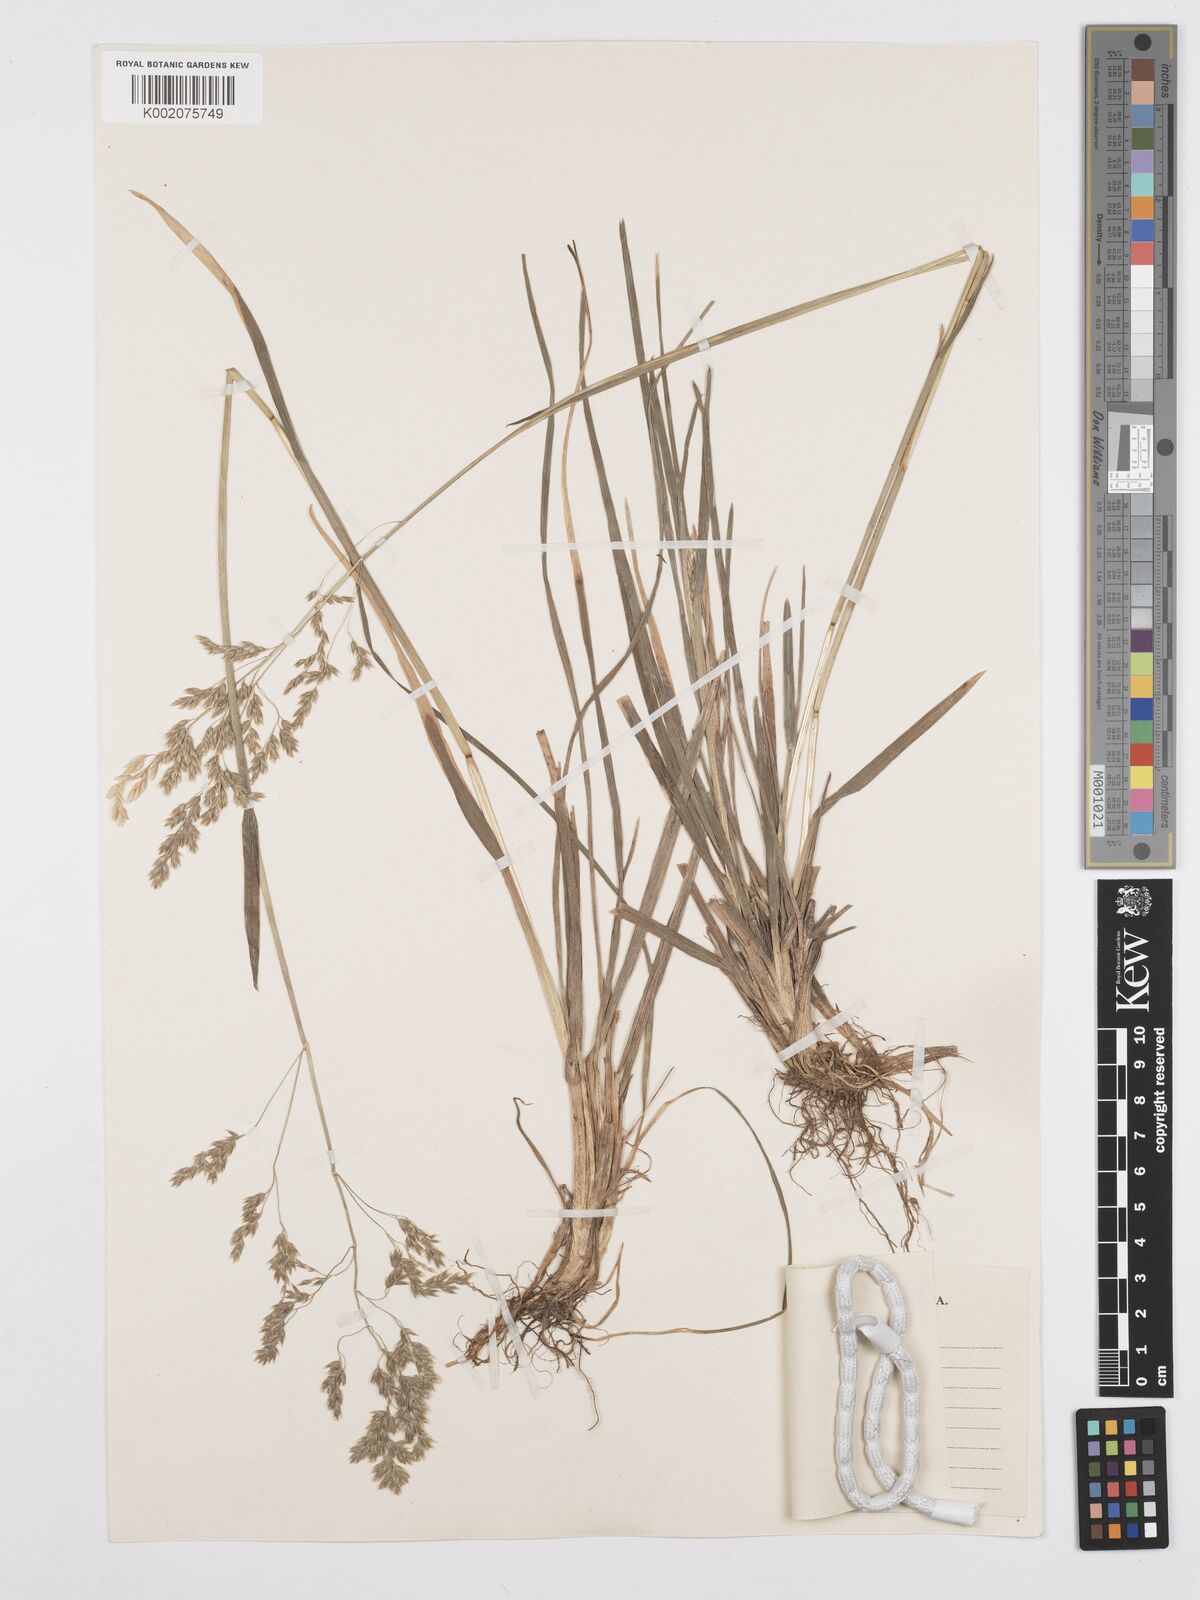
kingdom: Plantae
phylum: Tracheophyta
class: Liliopsida
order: Poales
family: Poaceae
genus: Poa
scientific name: Poa binata
